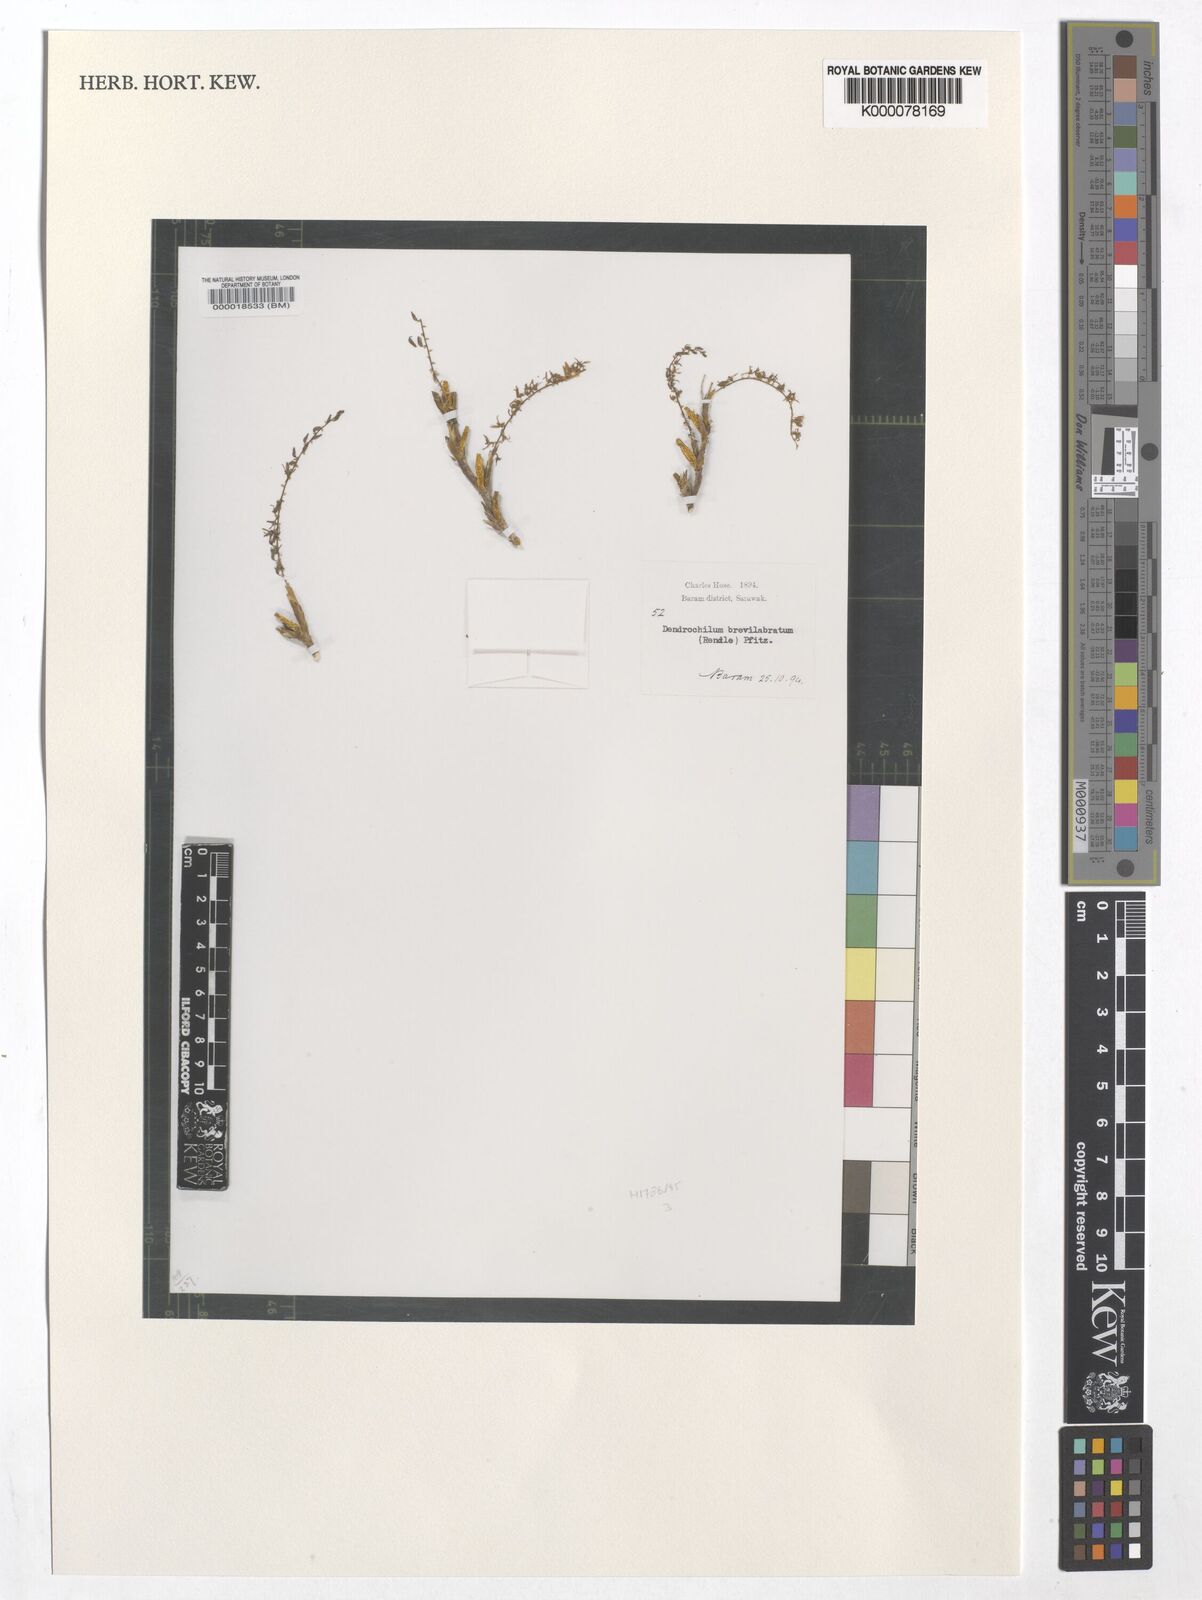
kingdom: Plantae
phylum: Tracheophyta
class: Liliopsida
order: Asparagales
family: Orchidaceae
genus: Coelogyne
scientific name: Coelogyne pallidiflavens
